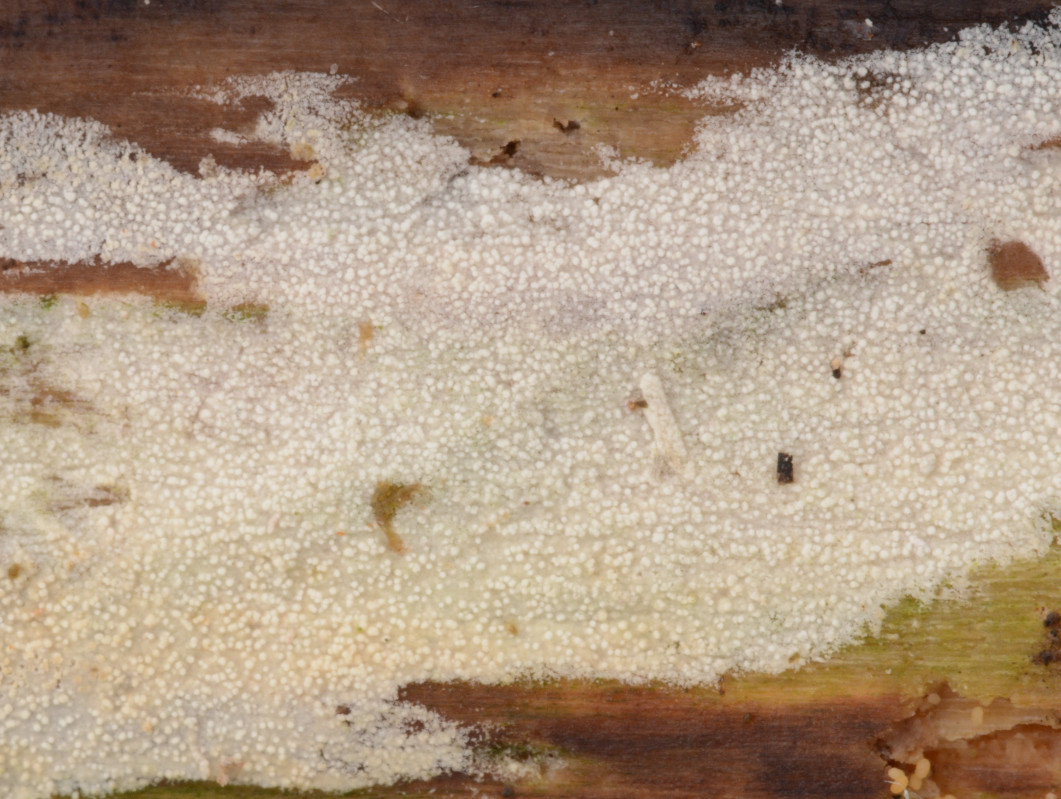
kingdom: Fungi
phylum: Basidiomycota
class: Agaricomycetes
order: Trechisporales
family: Hydnodontaceae
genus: Brevicellicium
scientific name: Brevicellicium olivascens
